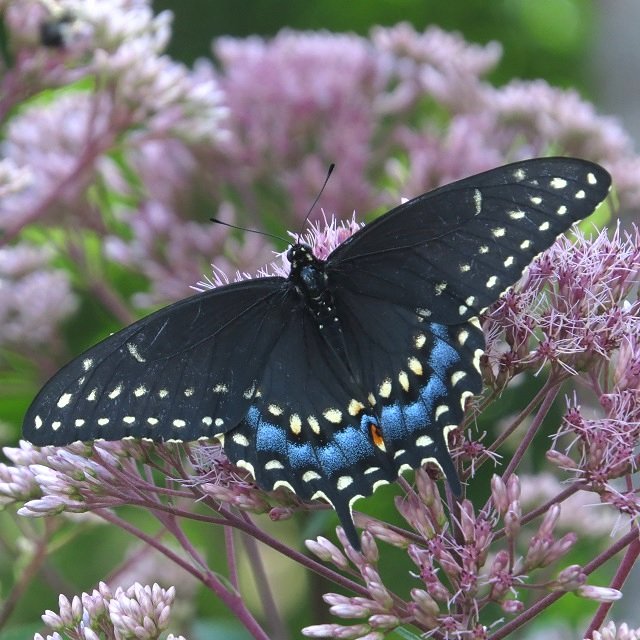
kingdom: Animalia
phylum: Arthropoda
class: Insecta
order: Lepidoptera
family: Papilionidae
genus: Papilio
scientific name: Papilio polyxenes
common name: Black Swallowtail
